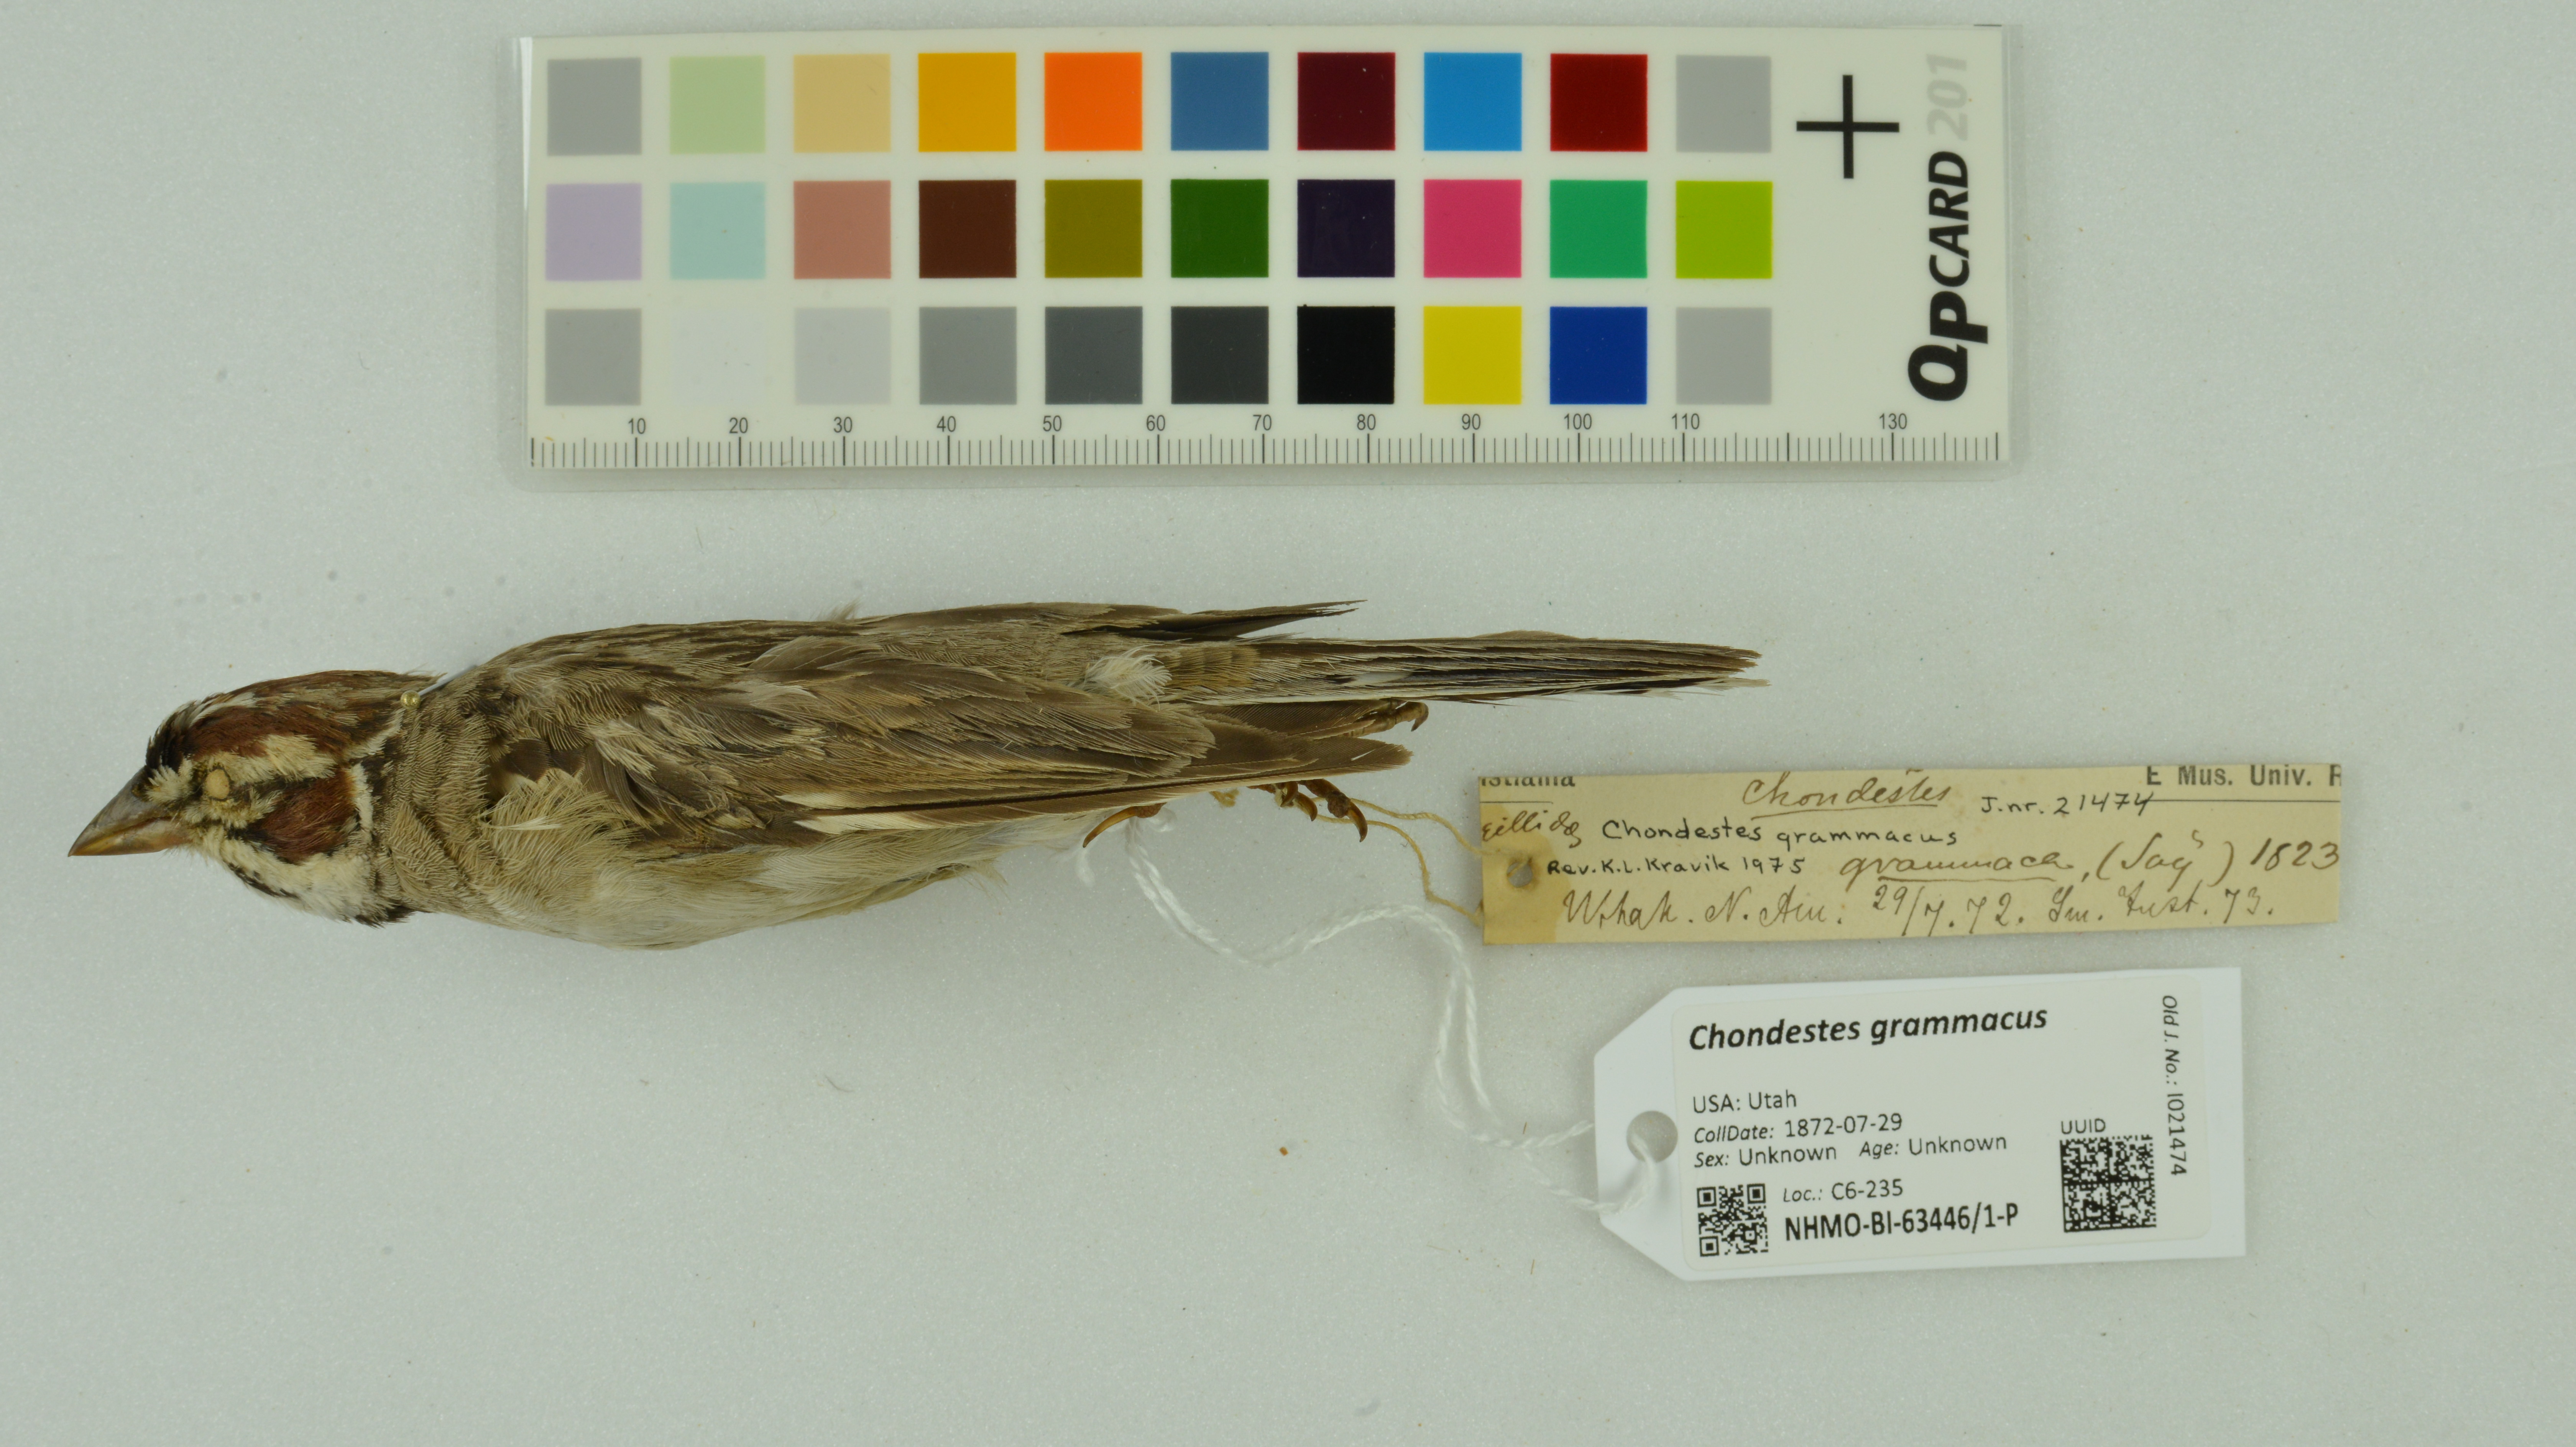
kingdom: Animalia
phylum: Chordata
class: Aves
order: Passeriformes
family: Passerellidae
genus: Chondestes
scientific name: Chondestes grammacus
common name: Lark sparrow
